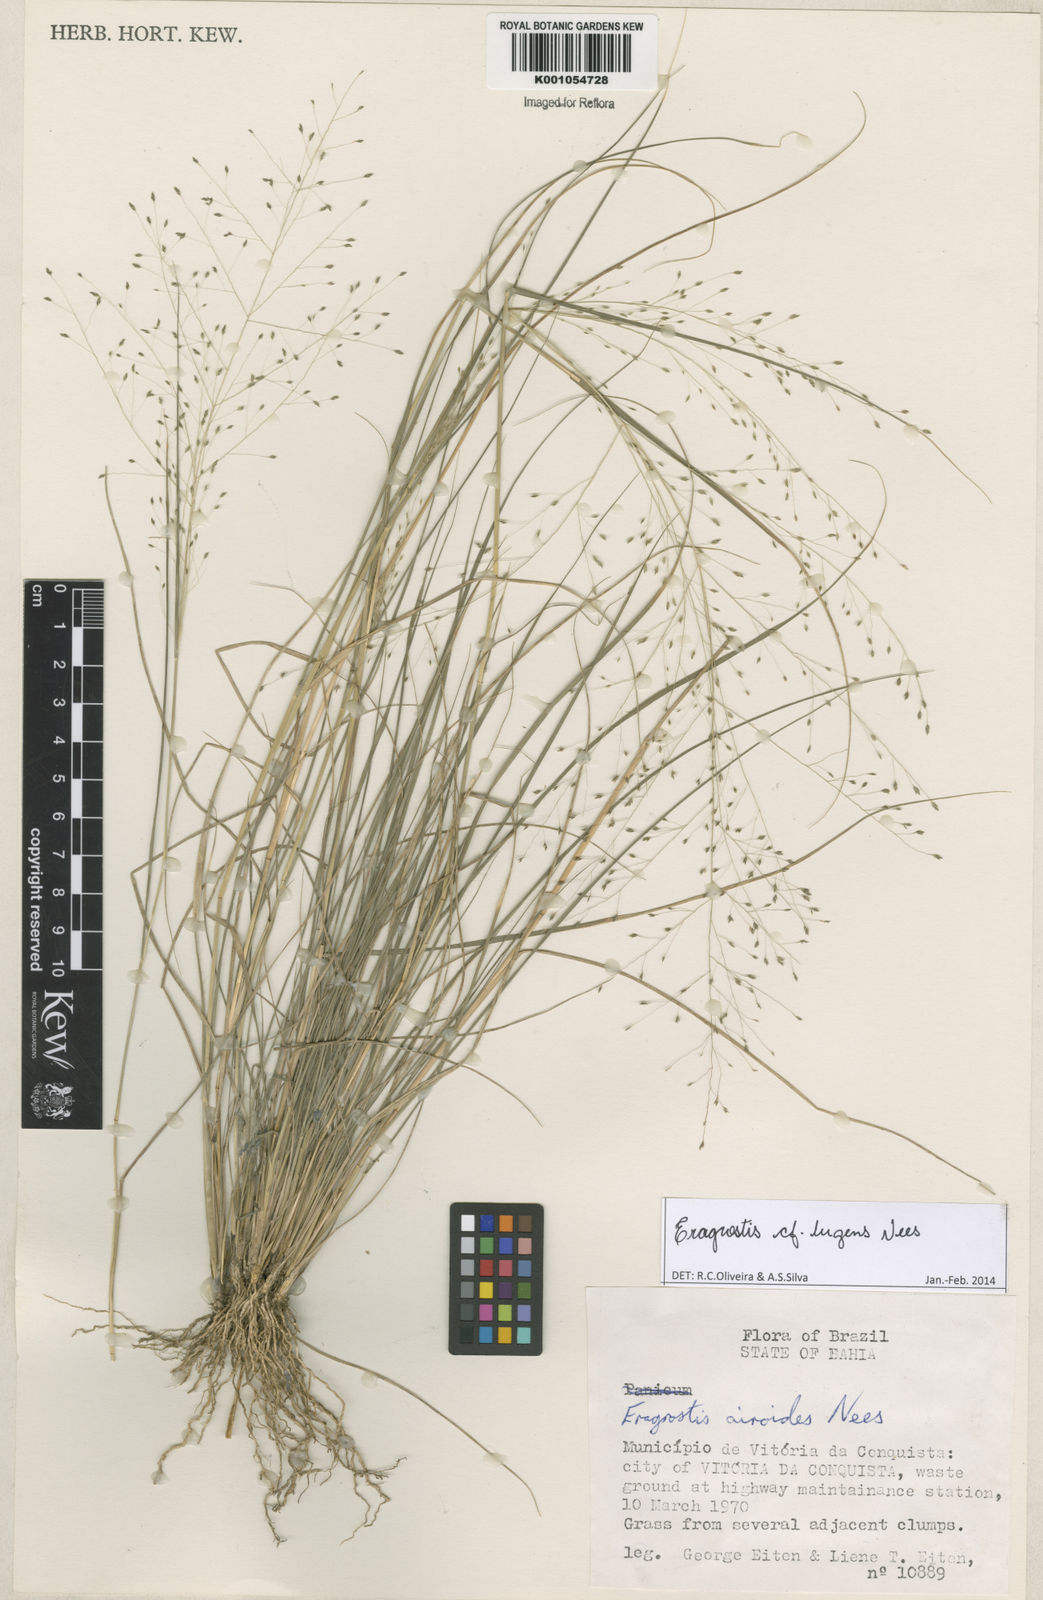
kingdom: Plantae
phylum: Tracheophyta
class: Liliopsida
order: Poales
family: Poaceae
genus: Eragrostis
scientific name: Eragrostis lugens
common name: Mourning love grass
